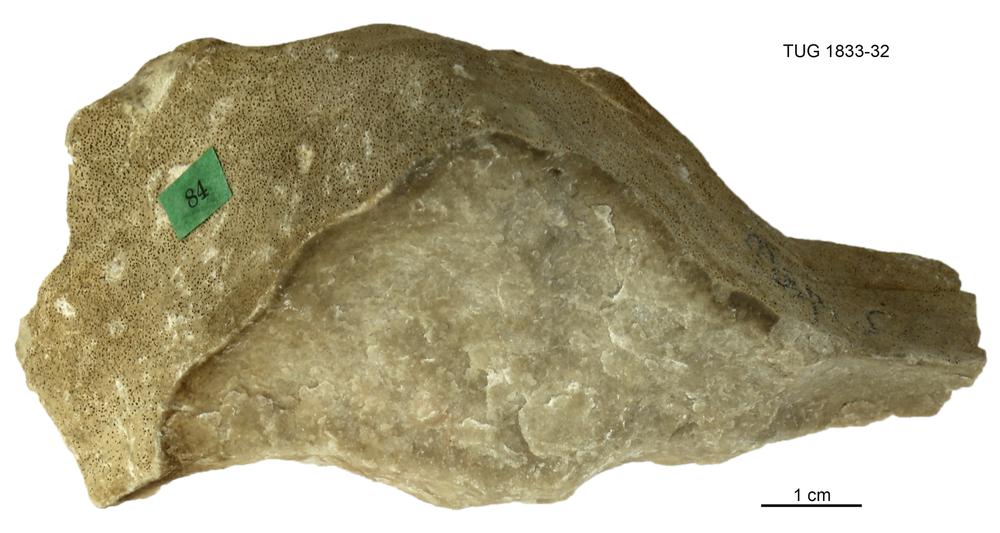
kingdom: Animalia
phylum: Porifera
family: Stromatoporidae
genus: Stromatopora
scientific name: Stromatopora
